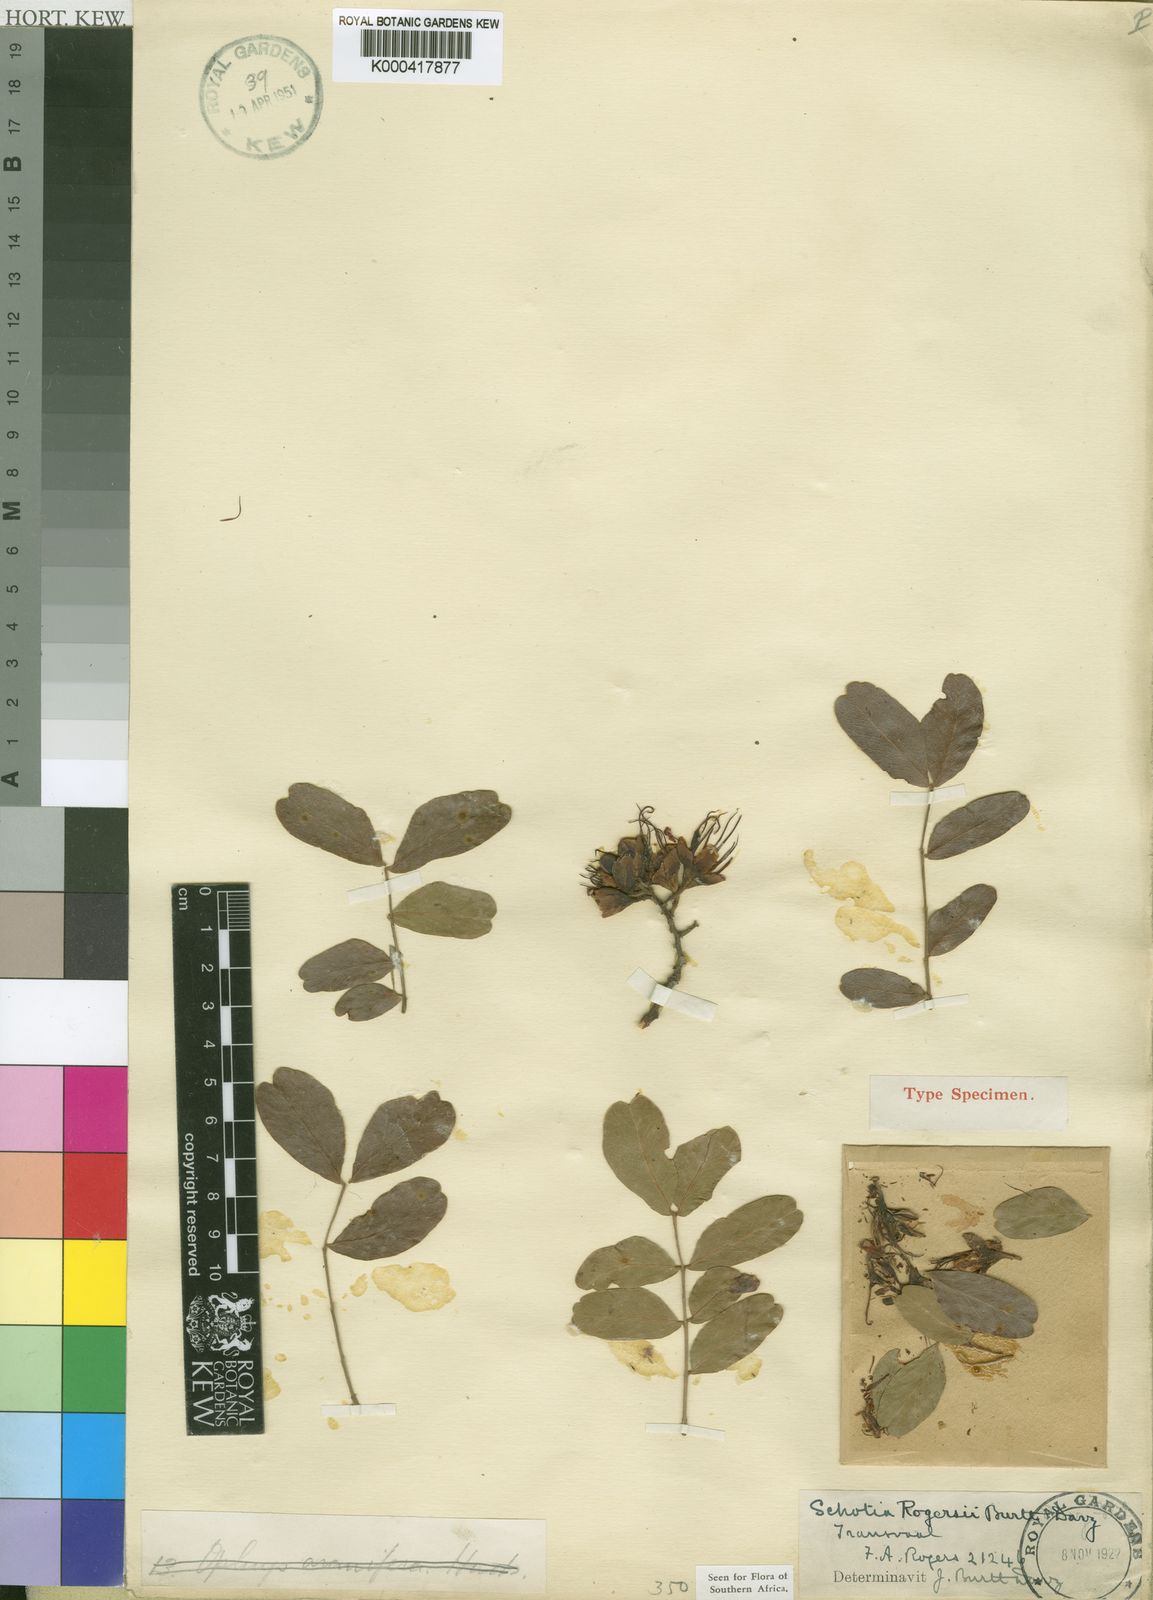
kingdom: Plantae
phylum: Tracheophyta
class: Magnoliopsida
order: Fabales
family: Fabaceae
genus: Schotia
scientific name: Schotia brachypetala
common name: Weeping boer-bean
